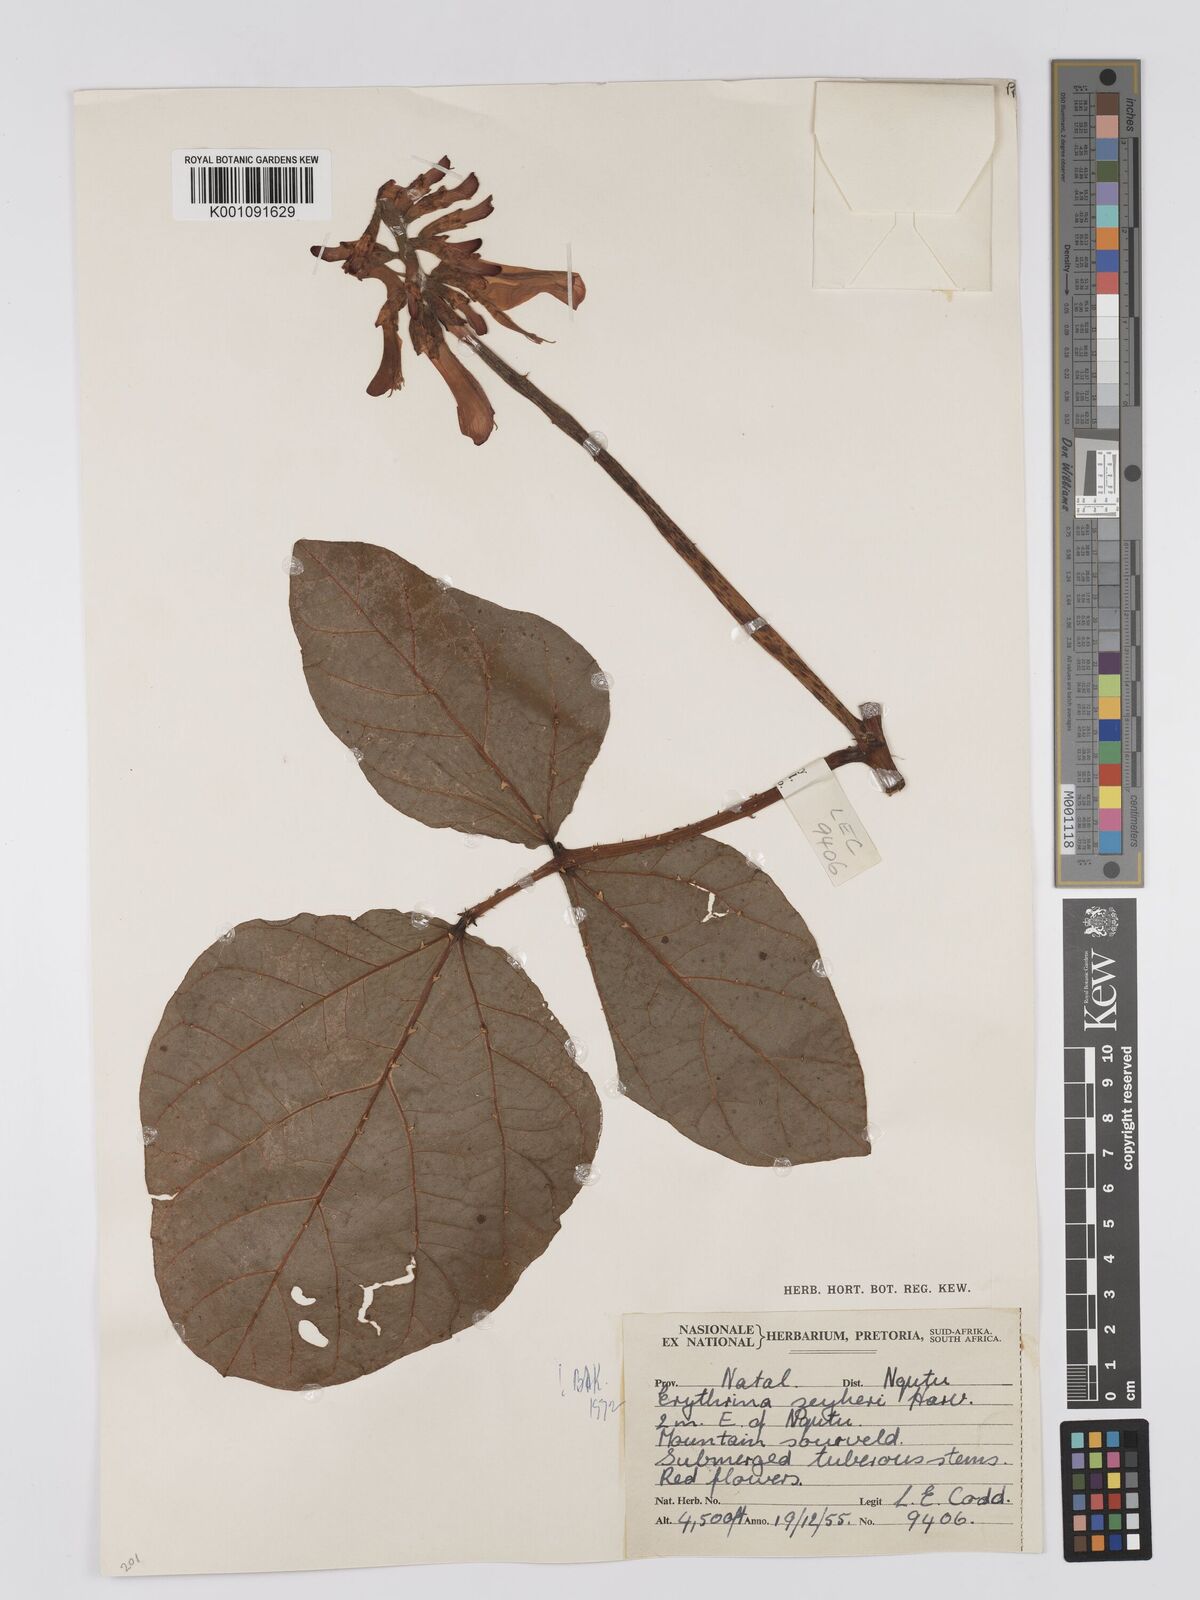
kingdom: Plantae
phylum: Tracheophyta
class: Magnoliopsida
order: Fabales
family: Fabaceae
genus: Erythrina
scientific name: Erythrina zeyheri
